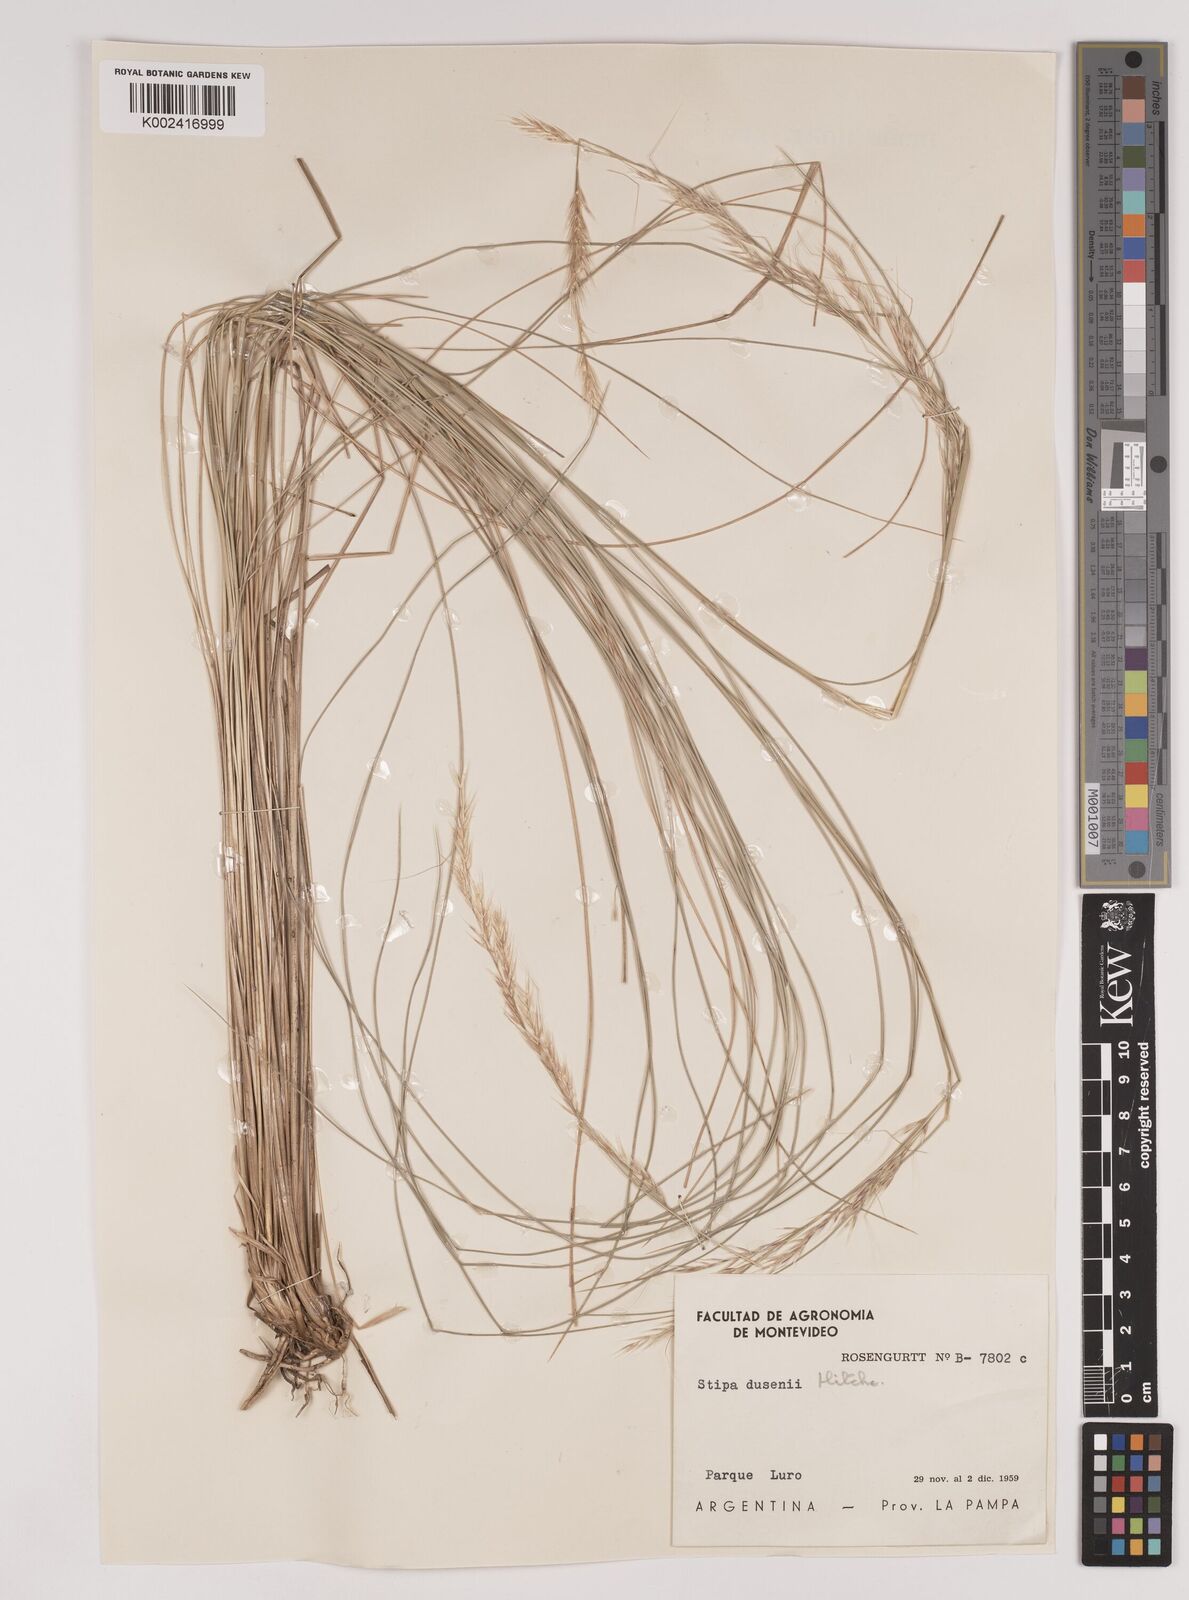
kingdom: Plantae
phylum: Tracheophyta
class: Liliopsida
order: Poales
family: Poaceae
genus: Amelichloa
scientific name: Amelichloa ambigua
